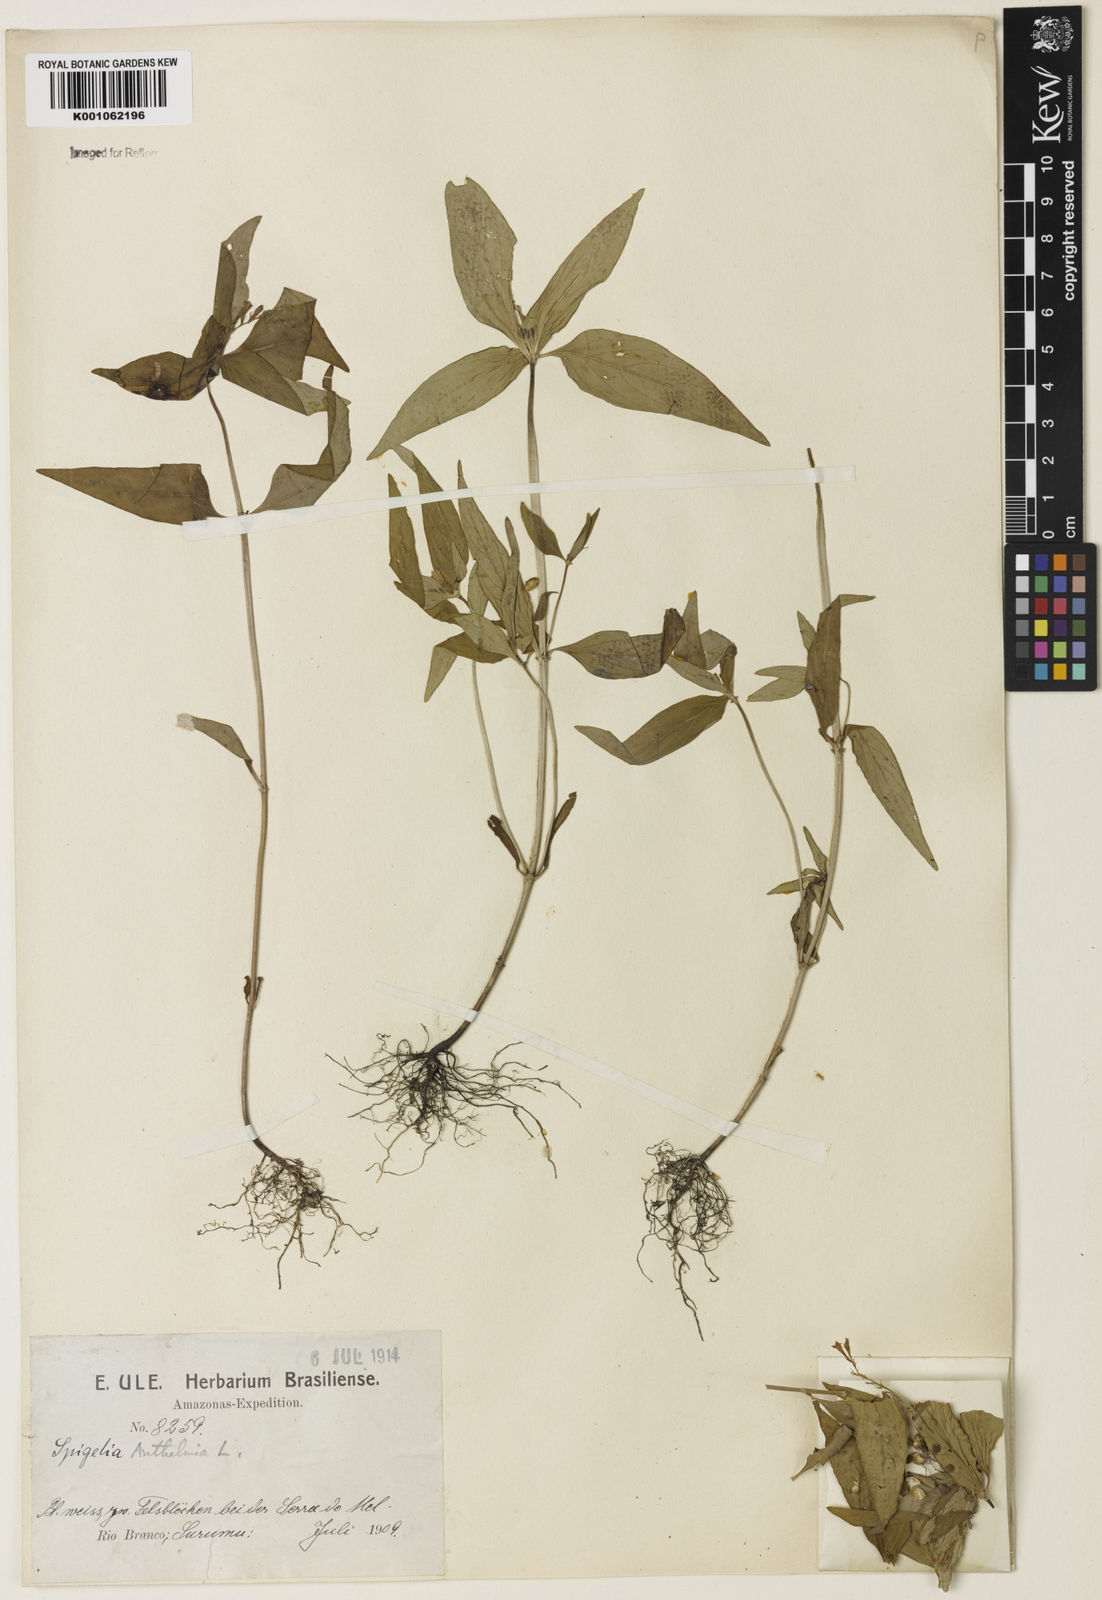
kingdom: Plantae
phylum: Tracheophyta
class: Magnoliopsida
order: Gentianales
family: Loganiaceae
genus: Spigelia
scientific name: Spigelia anthelmia
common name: West indian-pink
